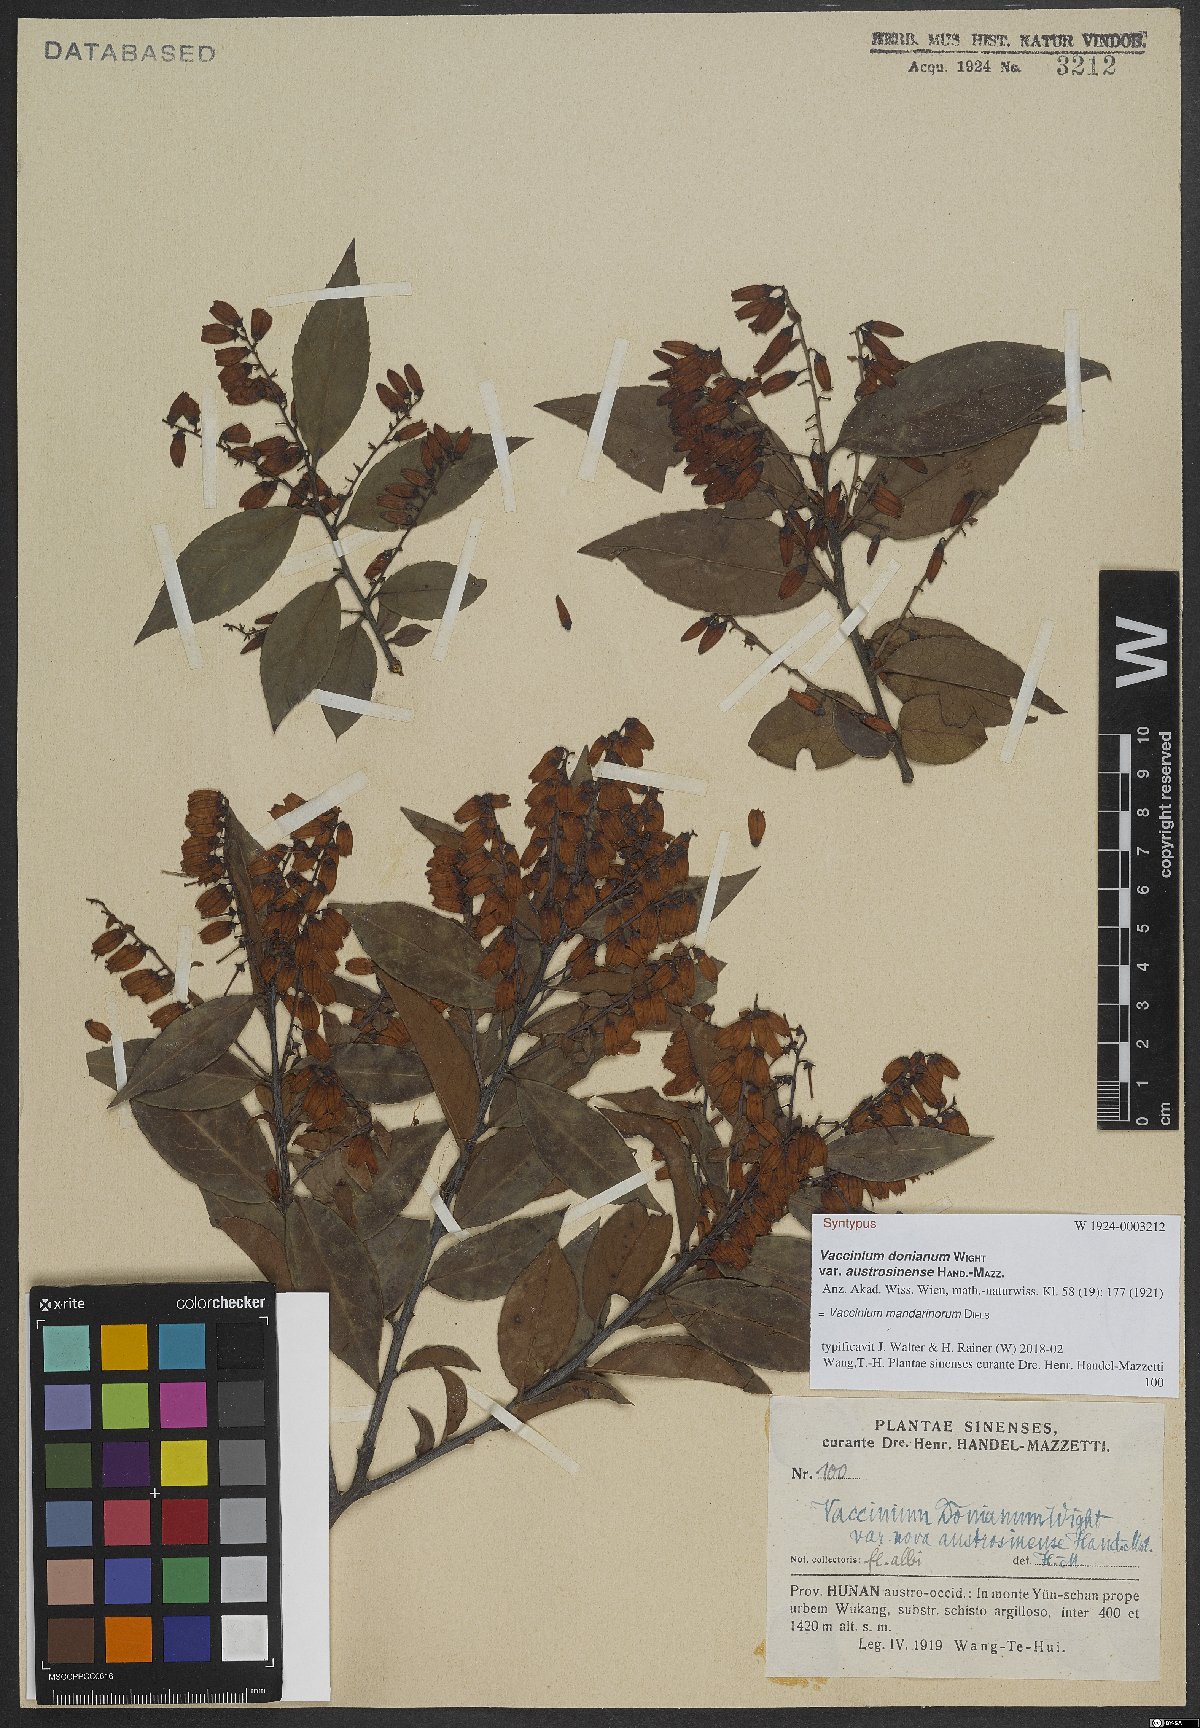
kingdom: Plantae
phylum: Tracheophyta
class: Magnoliopsida
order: Ericales
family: Ericaceae
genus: Vaccinium
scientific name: Vaccinium mandarinorum
